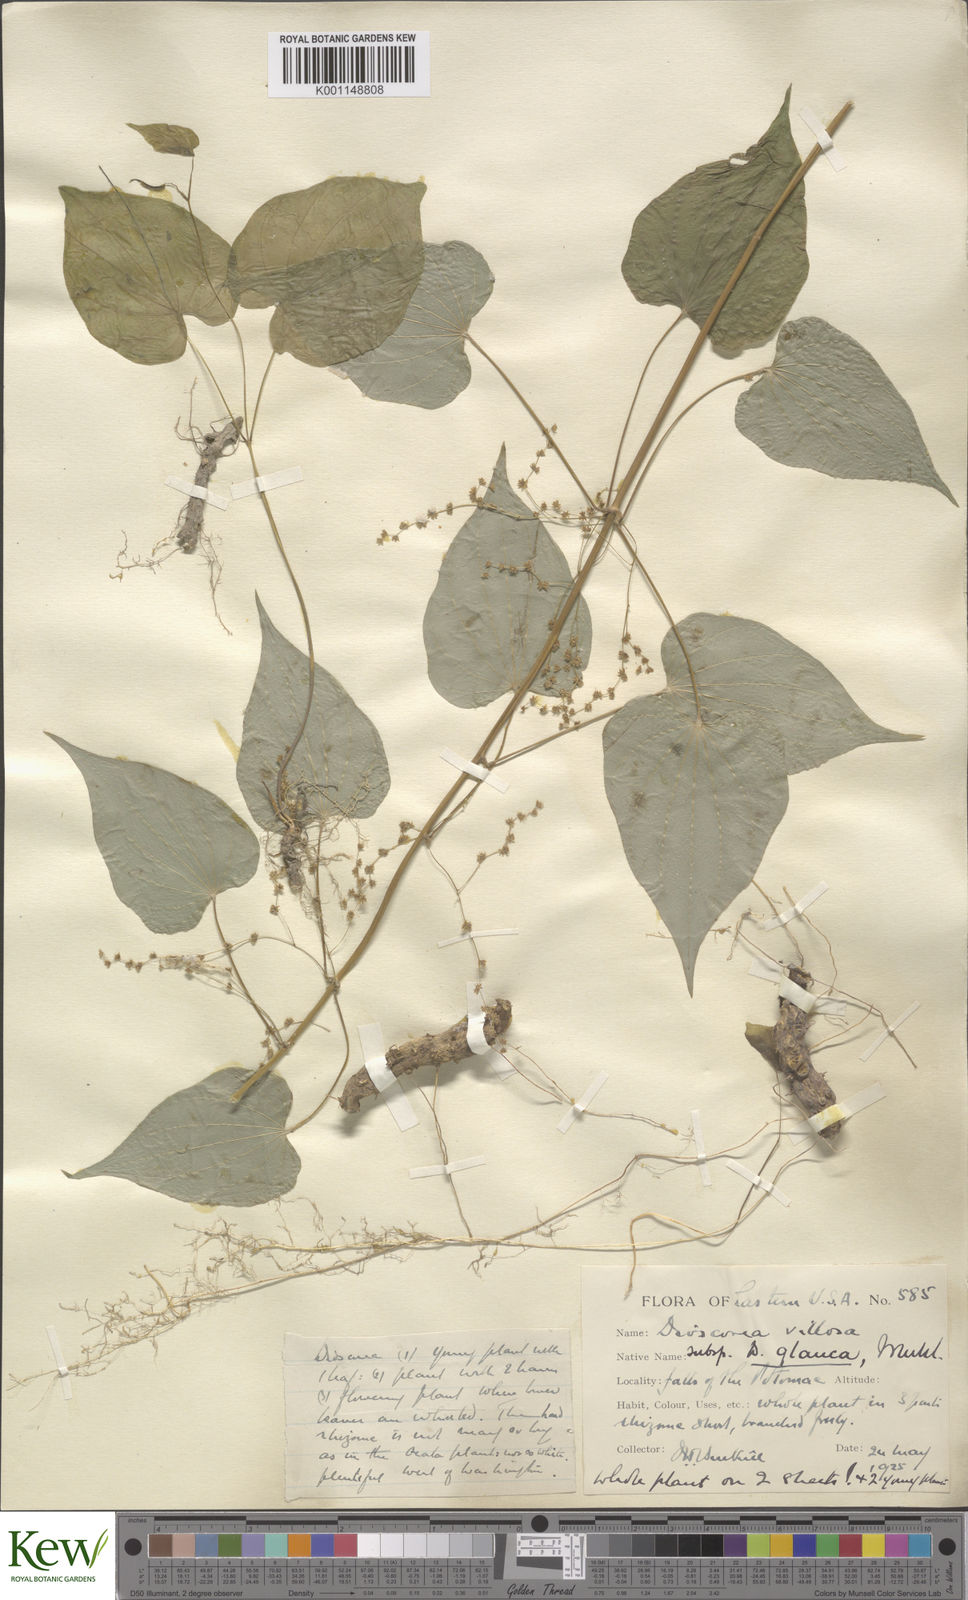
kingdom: Plantae
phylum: Tracheophyta
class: Liliopsida
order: Dioscoreales
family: Dioscoreaceae
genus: Dioscorea
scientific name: Dioscorea villosa
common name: Wild yam
